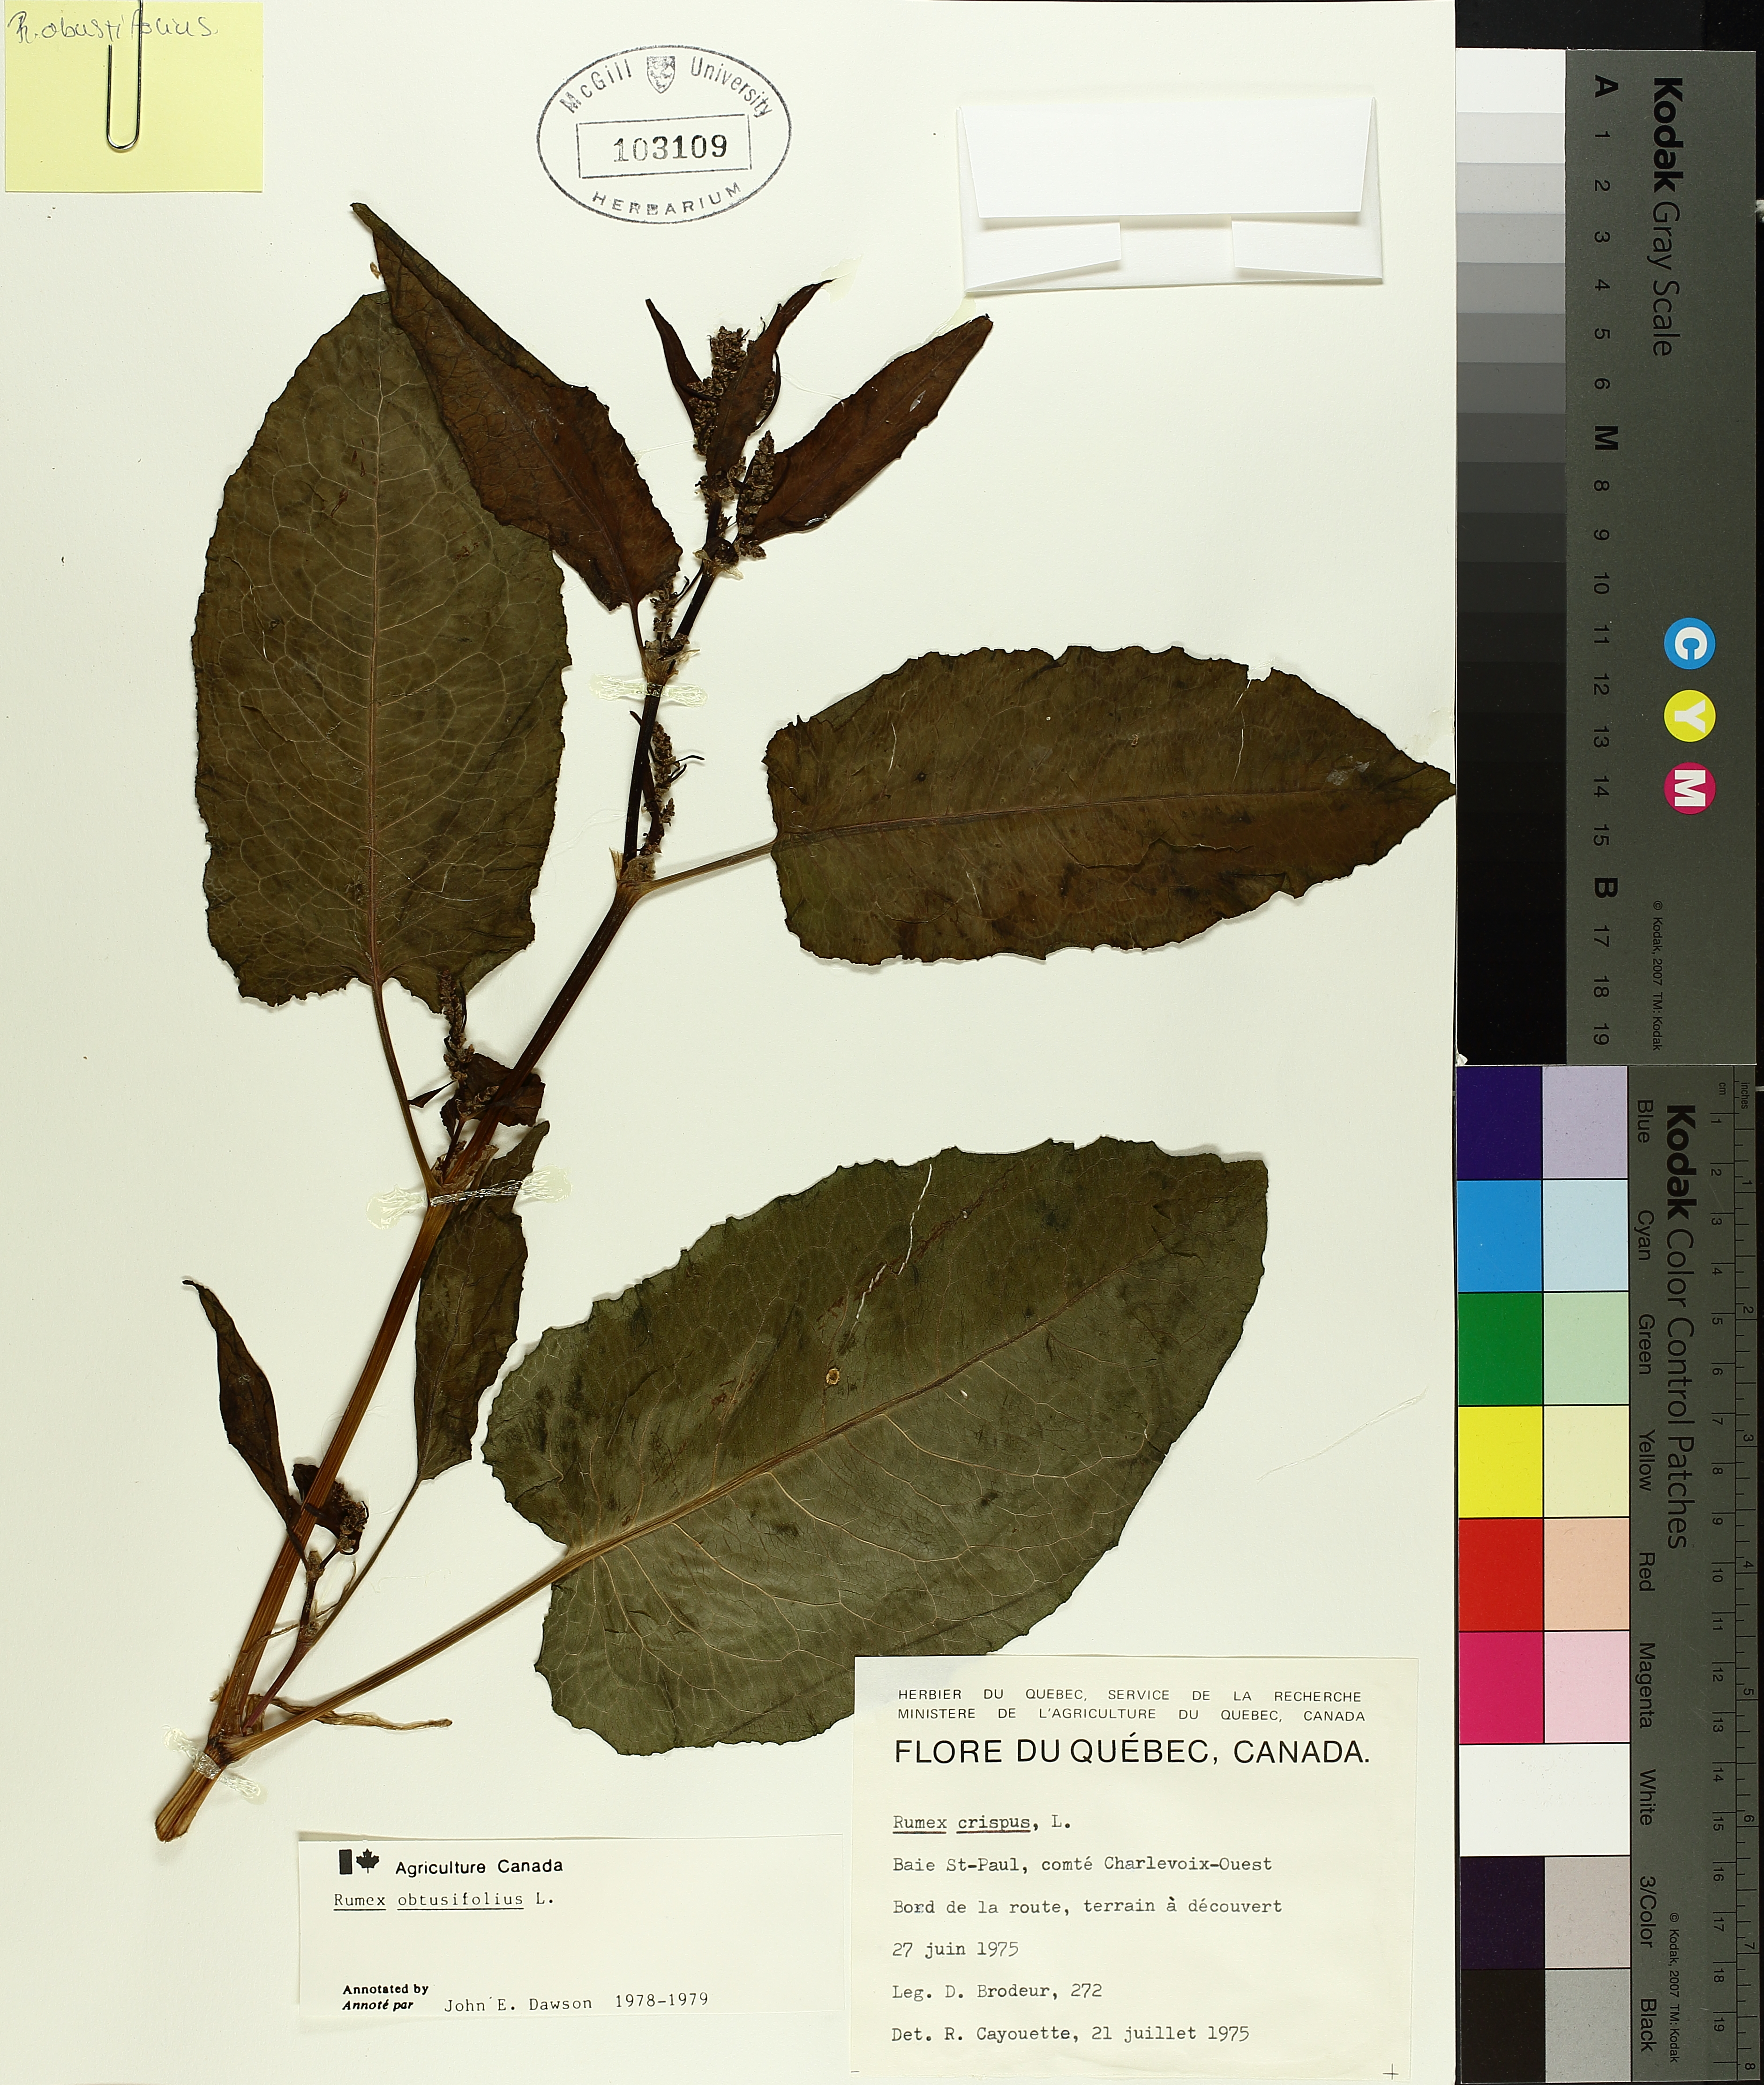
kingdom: Plantae
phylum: Tracheophyta
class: Magnoliopsida
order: Caryophyllales
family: Polygonaceae
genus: Rumex
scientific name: Rumex obtusifolius
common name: Bitter dock
